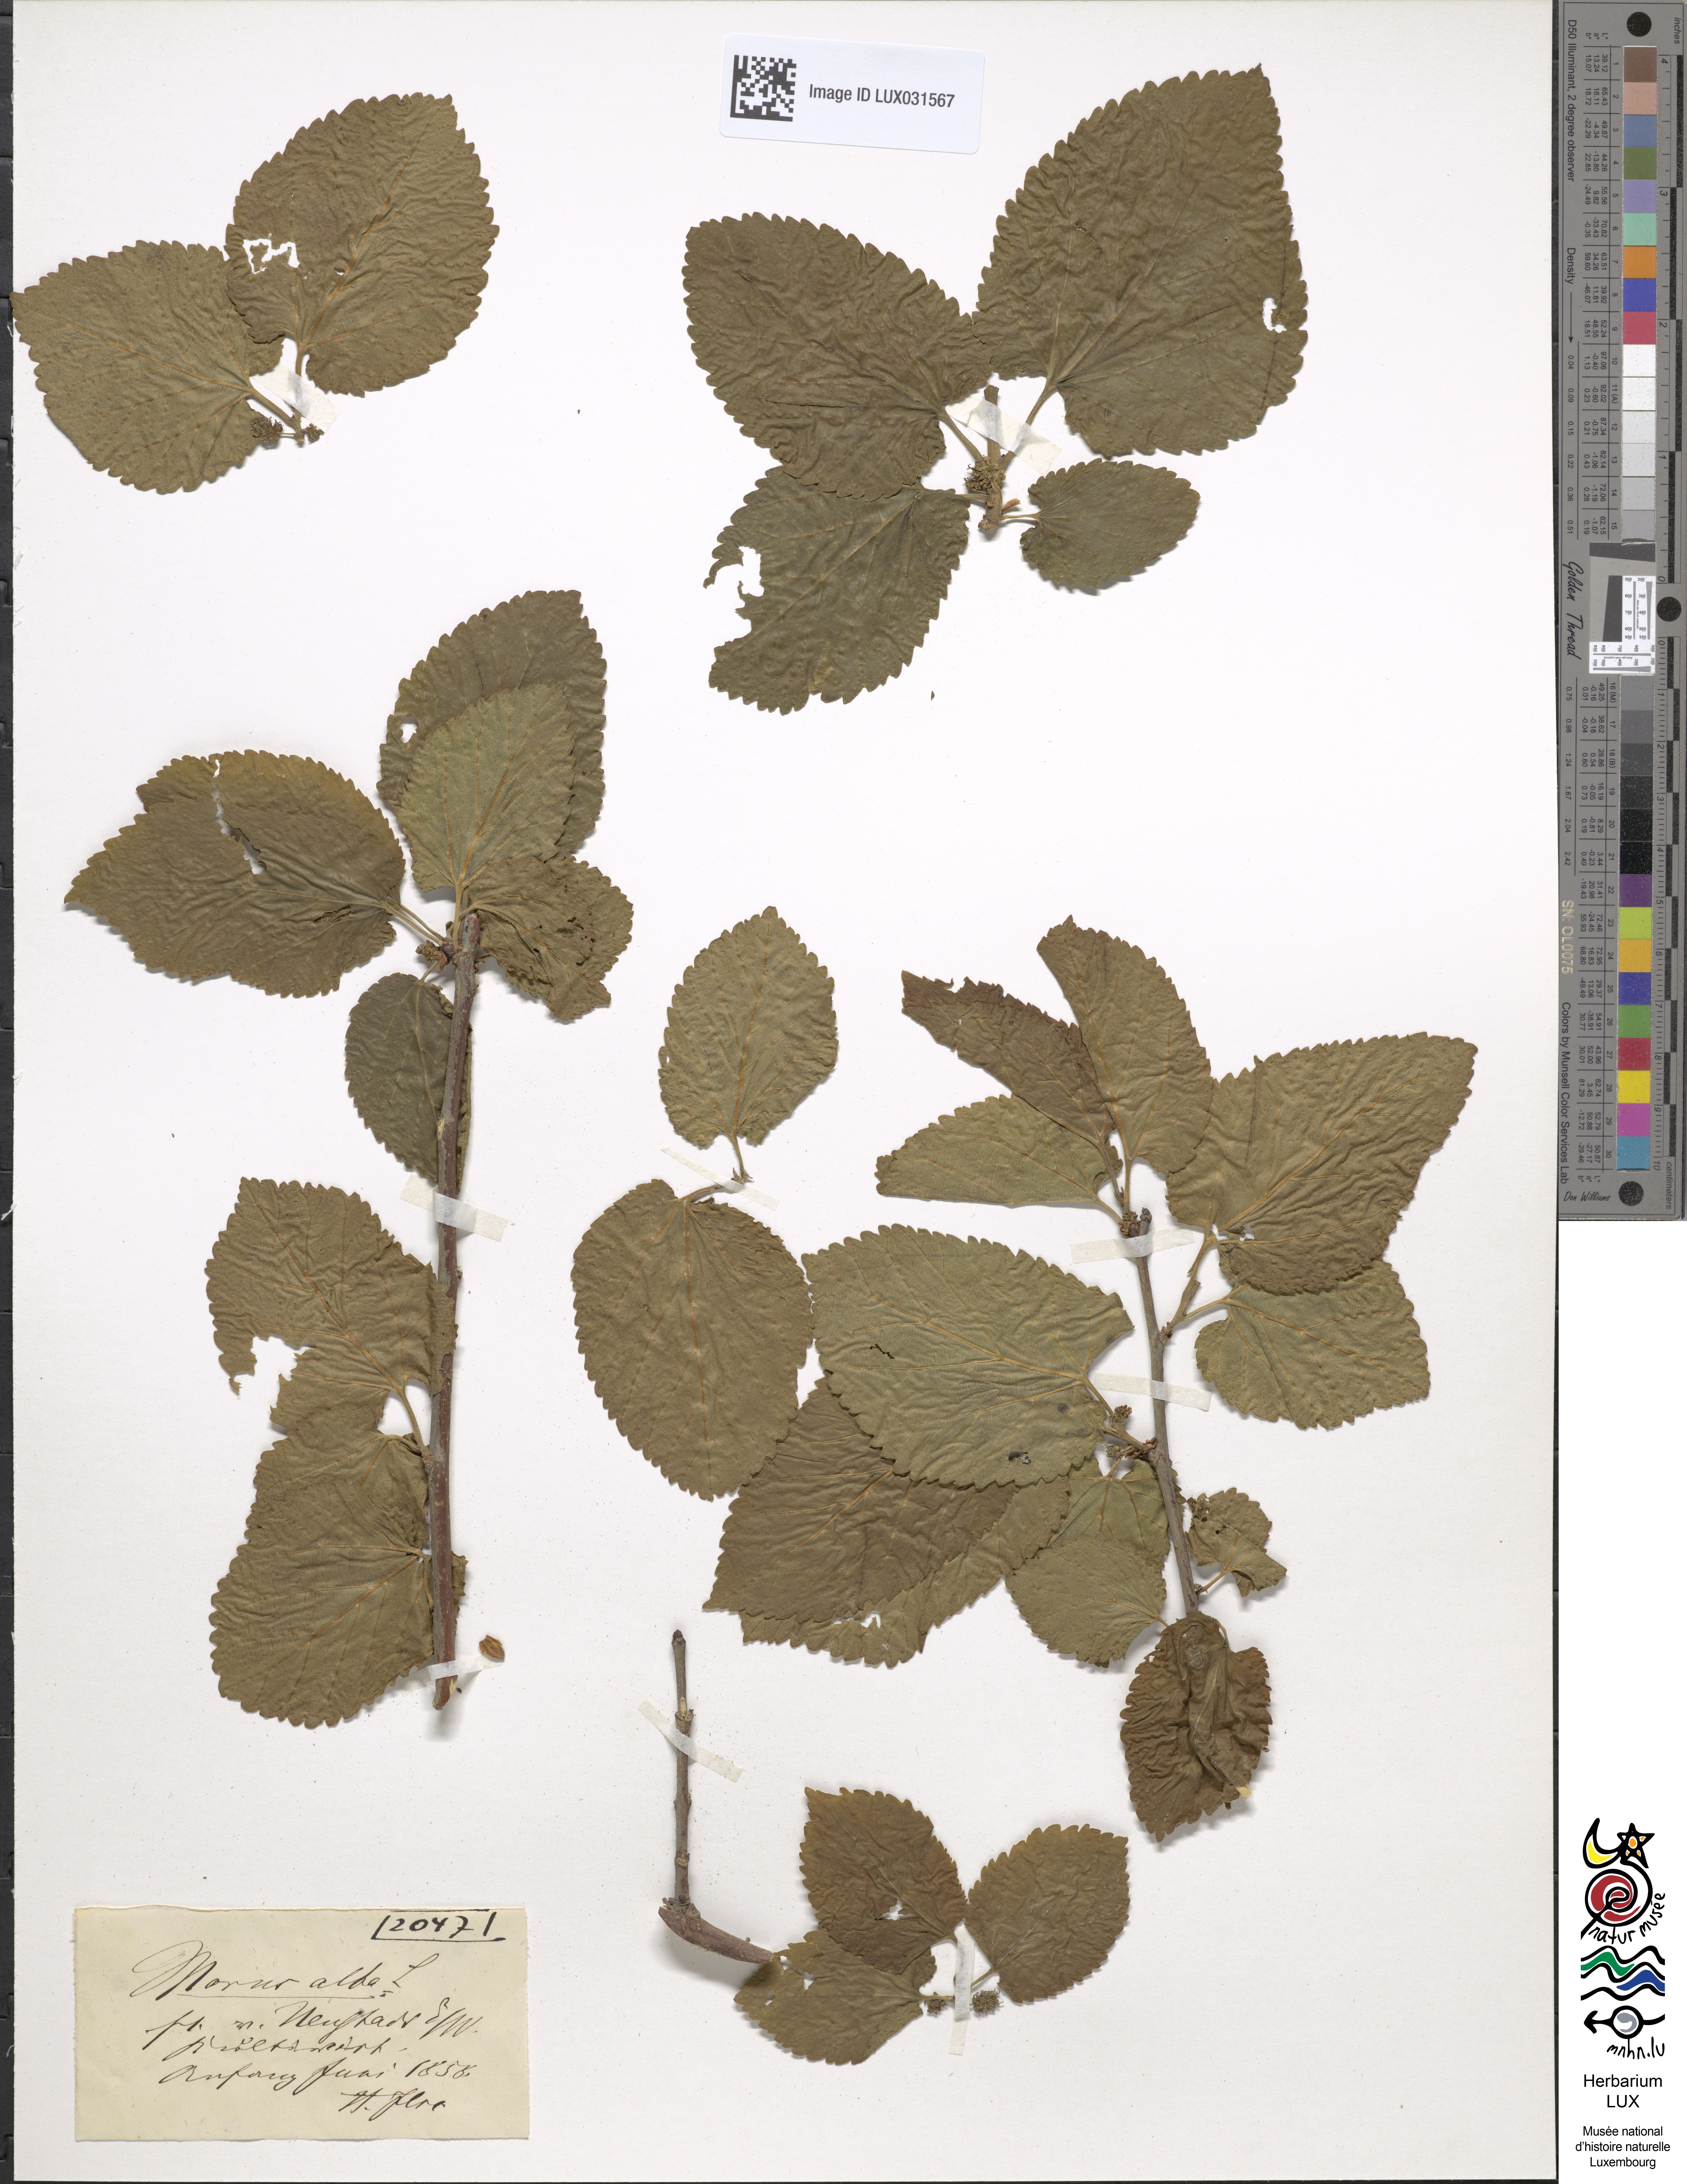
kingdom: Plantae
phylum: Tracheophyta
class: Magnoliopsida
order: Rosales
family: Moraceae
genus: Morus
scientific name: Morus alba
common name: White mulberry
